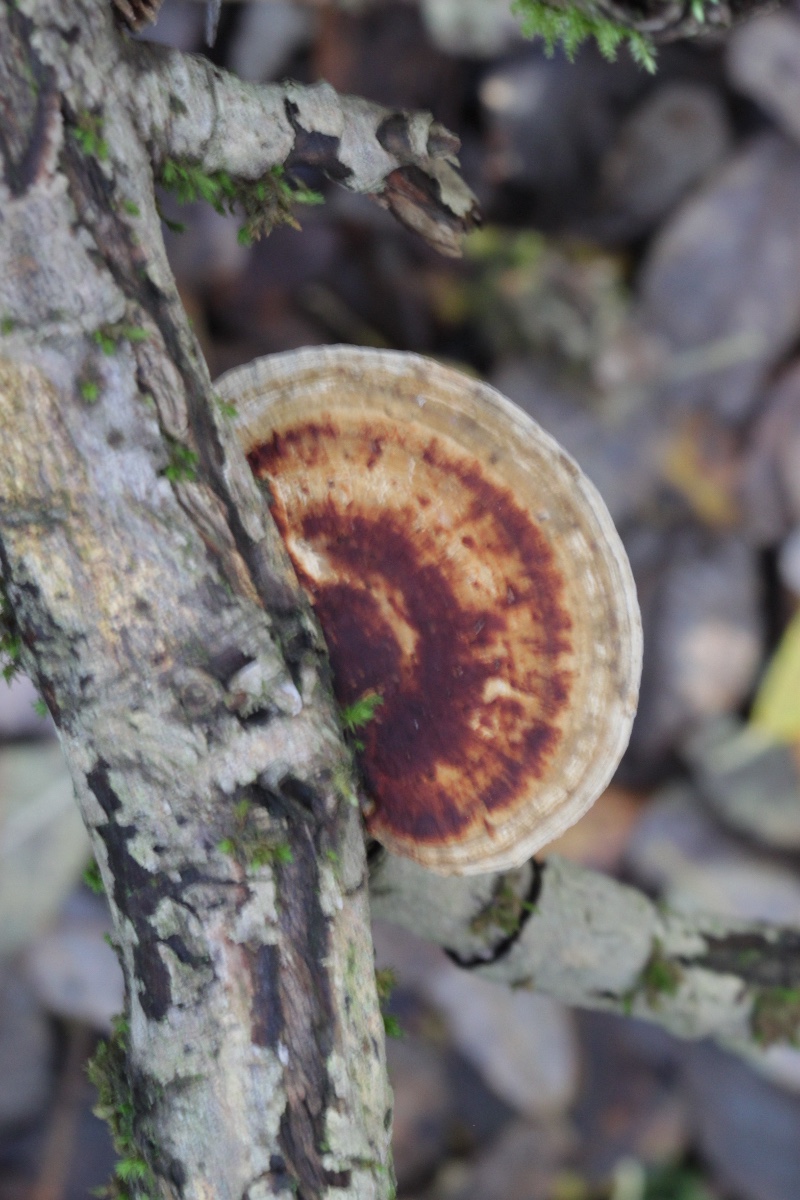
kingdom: Fungi
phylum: Basidiomycota
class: Agaricomycetes
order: Polyporales
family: Polyporaceae
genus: Daedaleopsis
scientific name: Daedaleopsis confragosa
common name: rødmende læderporesvamp
